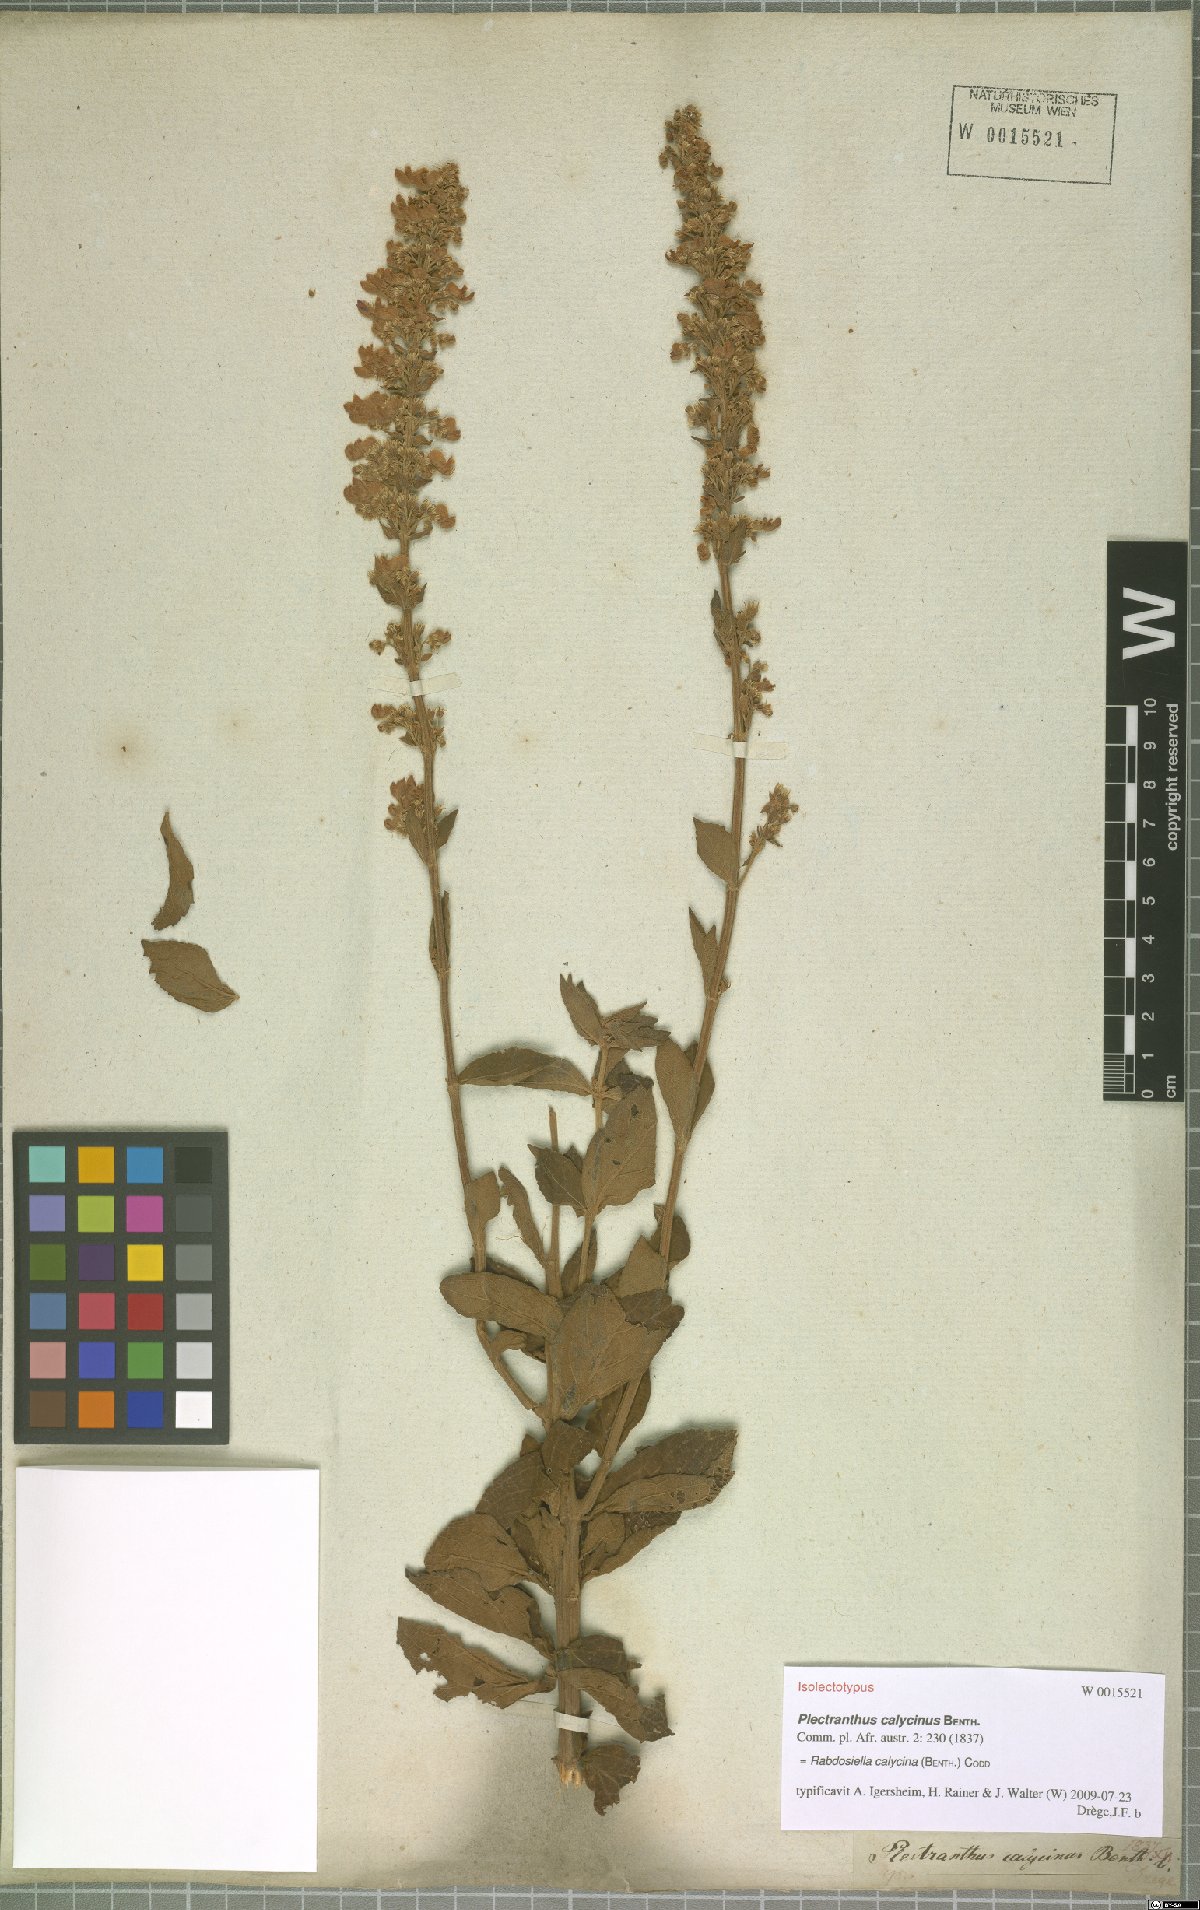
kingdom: Plantae
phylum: Tracheophyta
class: Magnoliopsida
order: Lamiales
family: Lamiaceae
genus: Coleus
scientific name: Coleus calycinus
